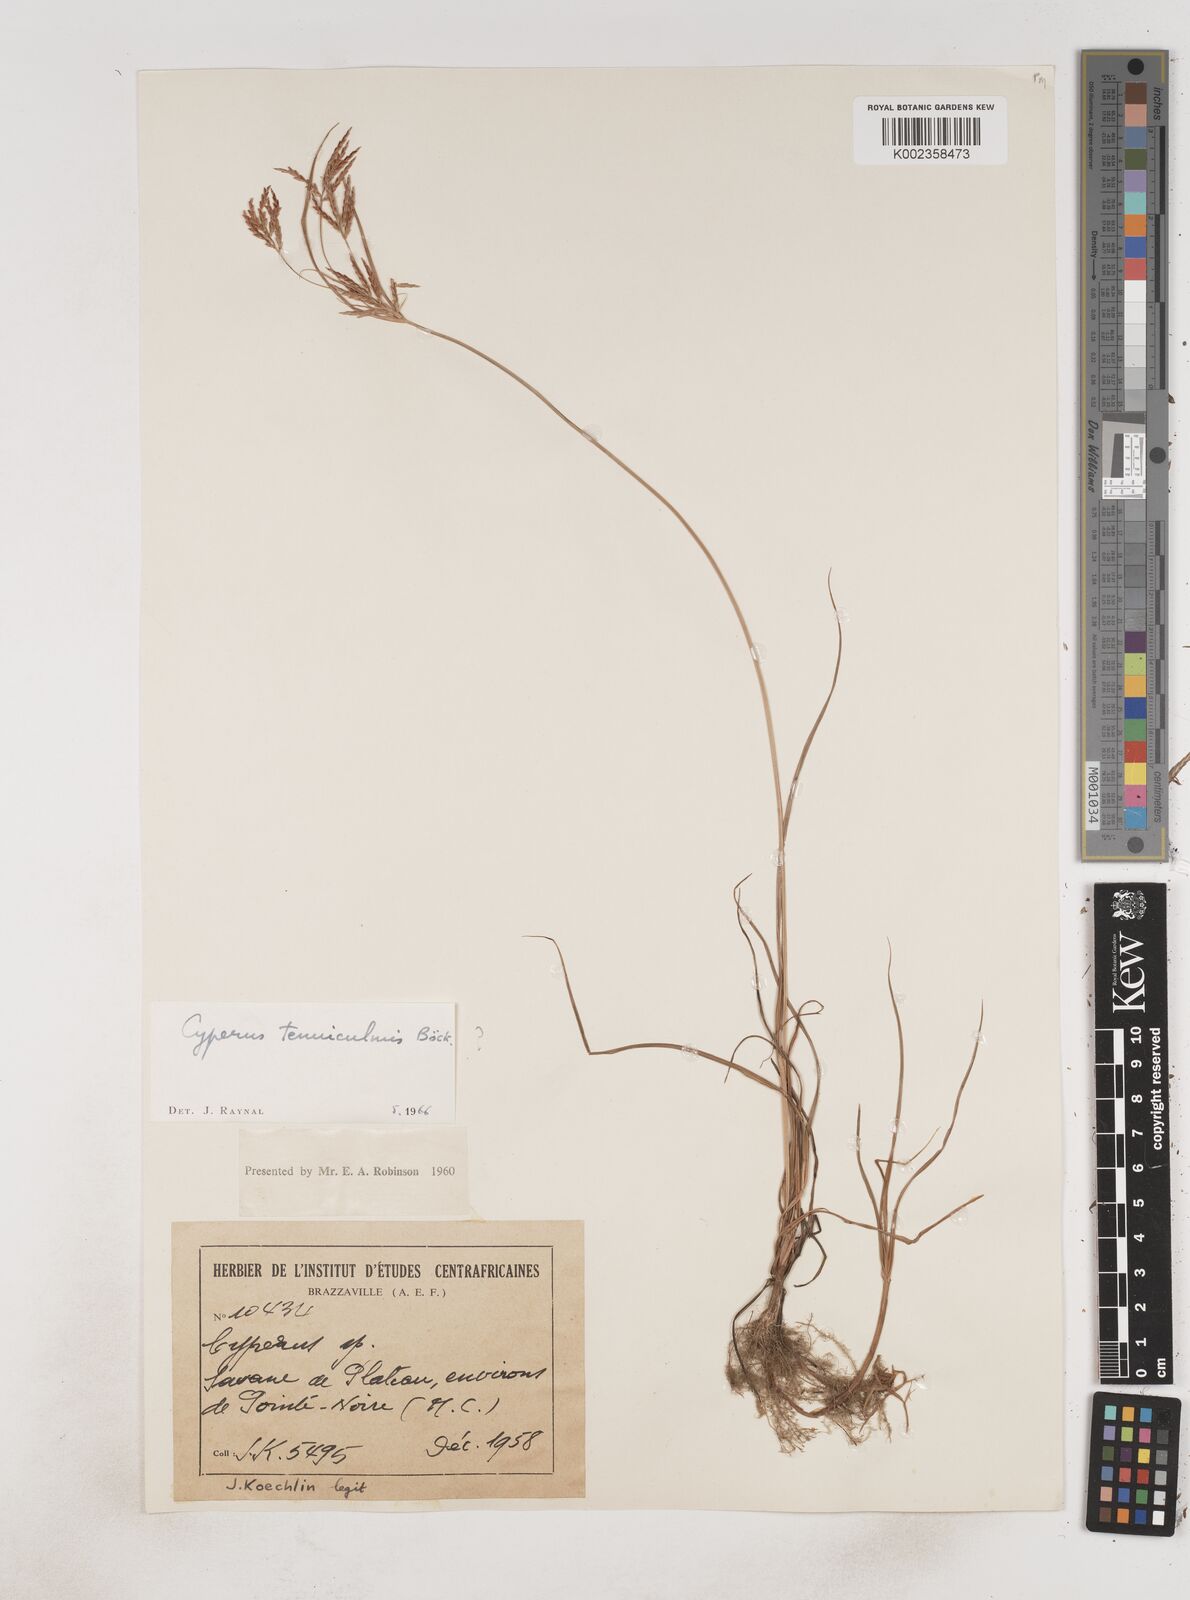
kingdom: Plantae
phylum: Tracheophyta
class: Liliopsida
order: Poales
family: Cyperaceae
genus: Cyperus
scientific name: Cyperus dilatatus
